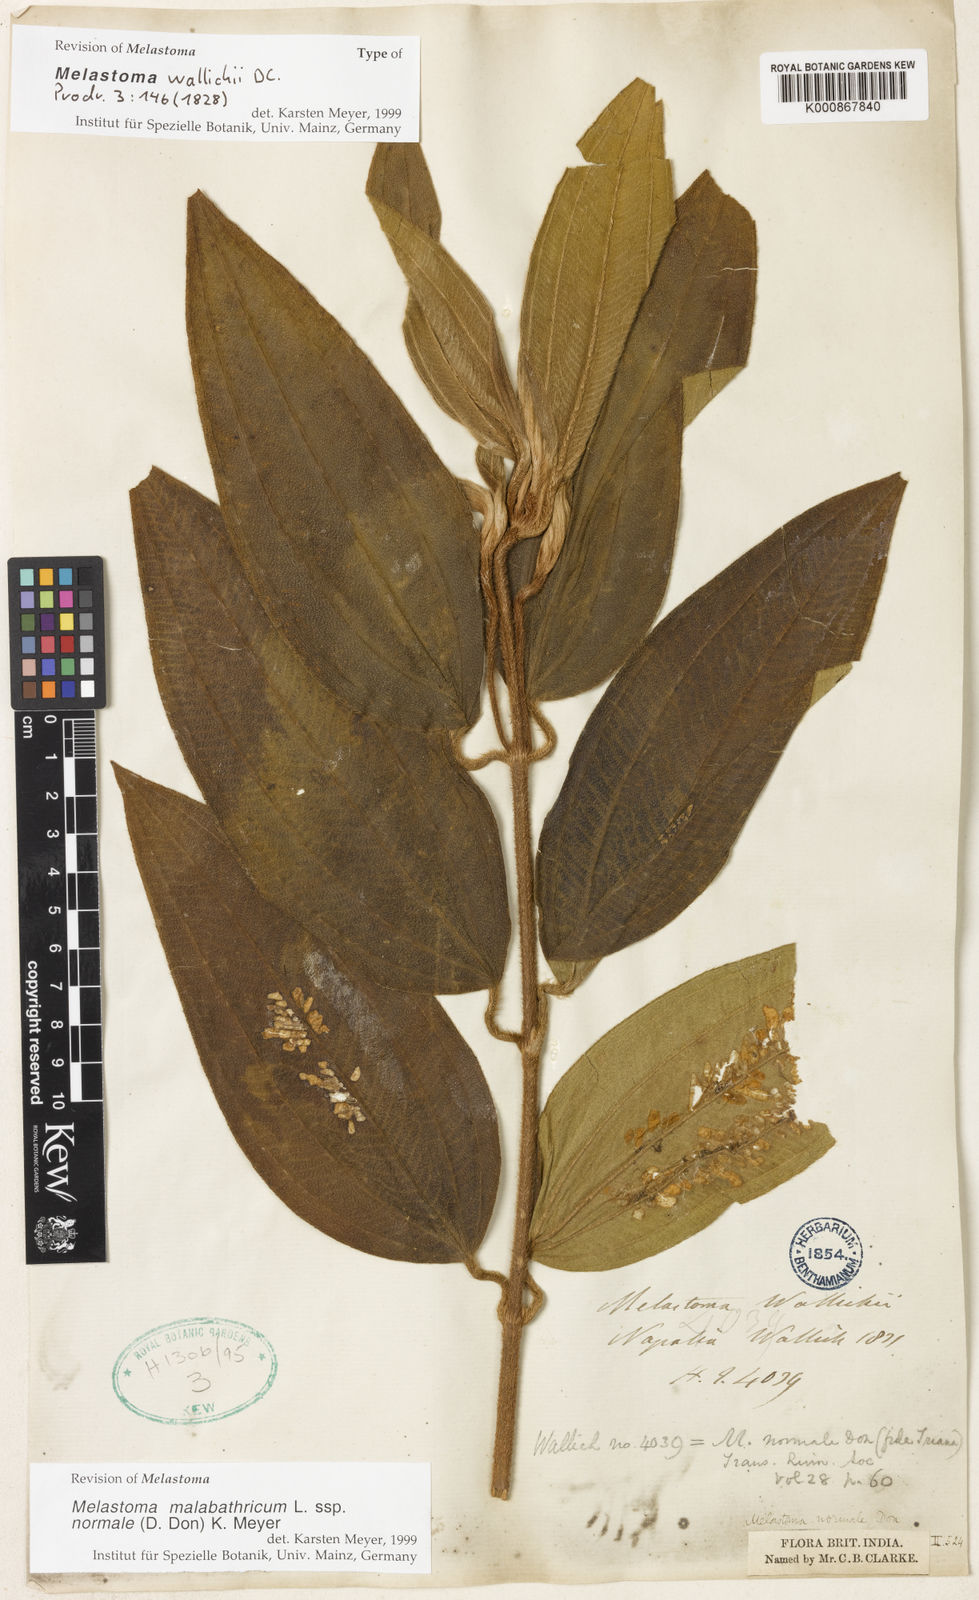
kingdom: Plantae
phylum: Tracheophyta
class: Magnoliopsida
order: Myrtales
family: Melastomataceae
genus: Melastoma
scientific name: Melastoma malabathricum
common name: Indian-rhododendron
